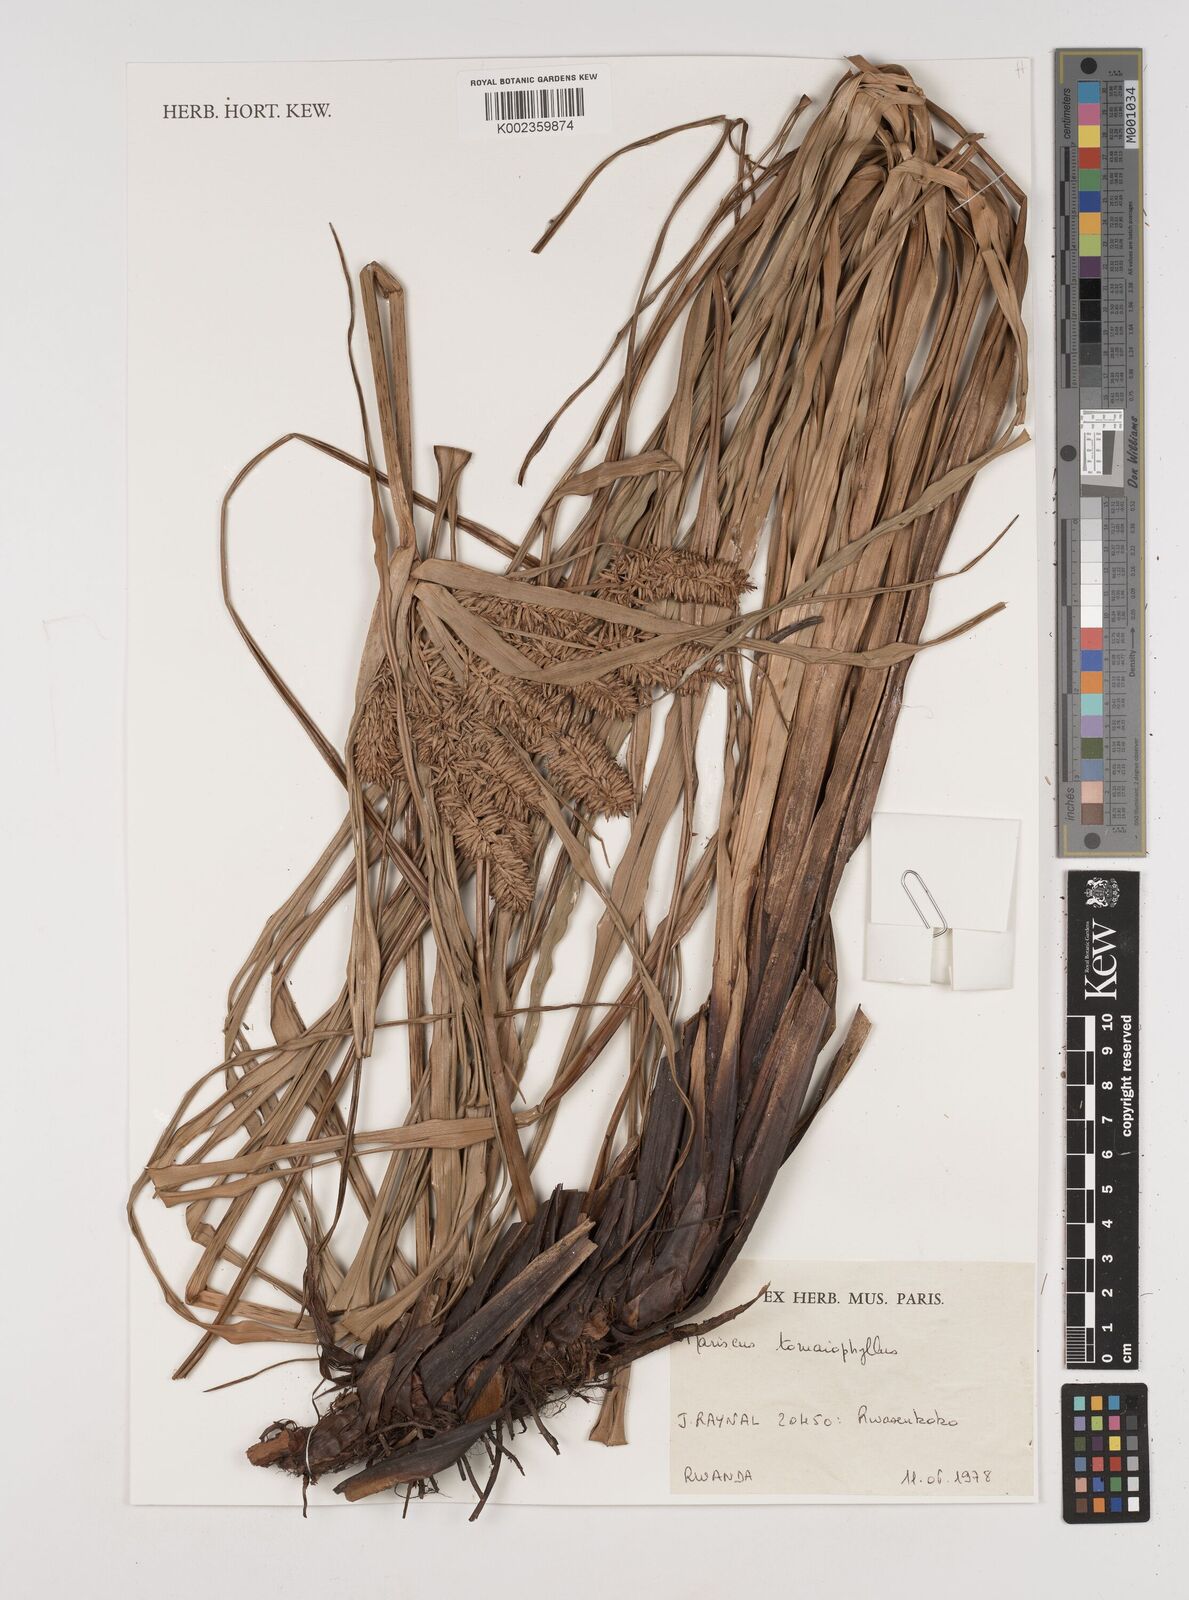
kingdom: Plantae
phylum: Tracheophyta
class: Liliopsida
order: Poales
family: Cyperaceae
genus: Cyperus
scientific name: Cyperus tomaiophyllus
